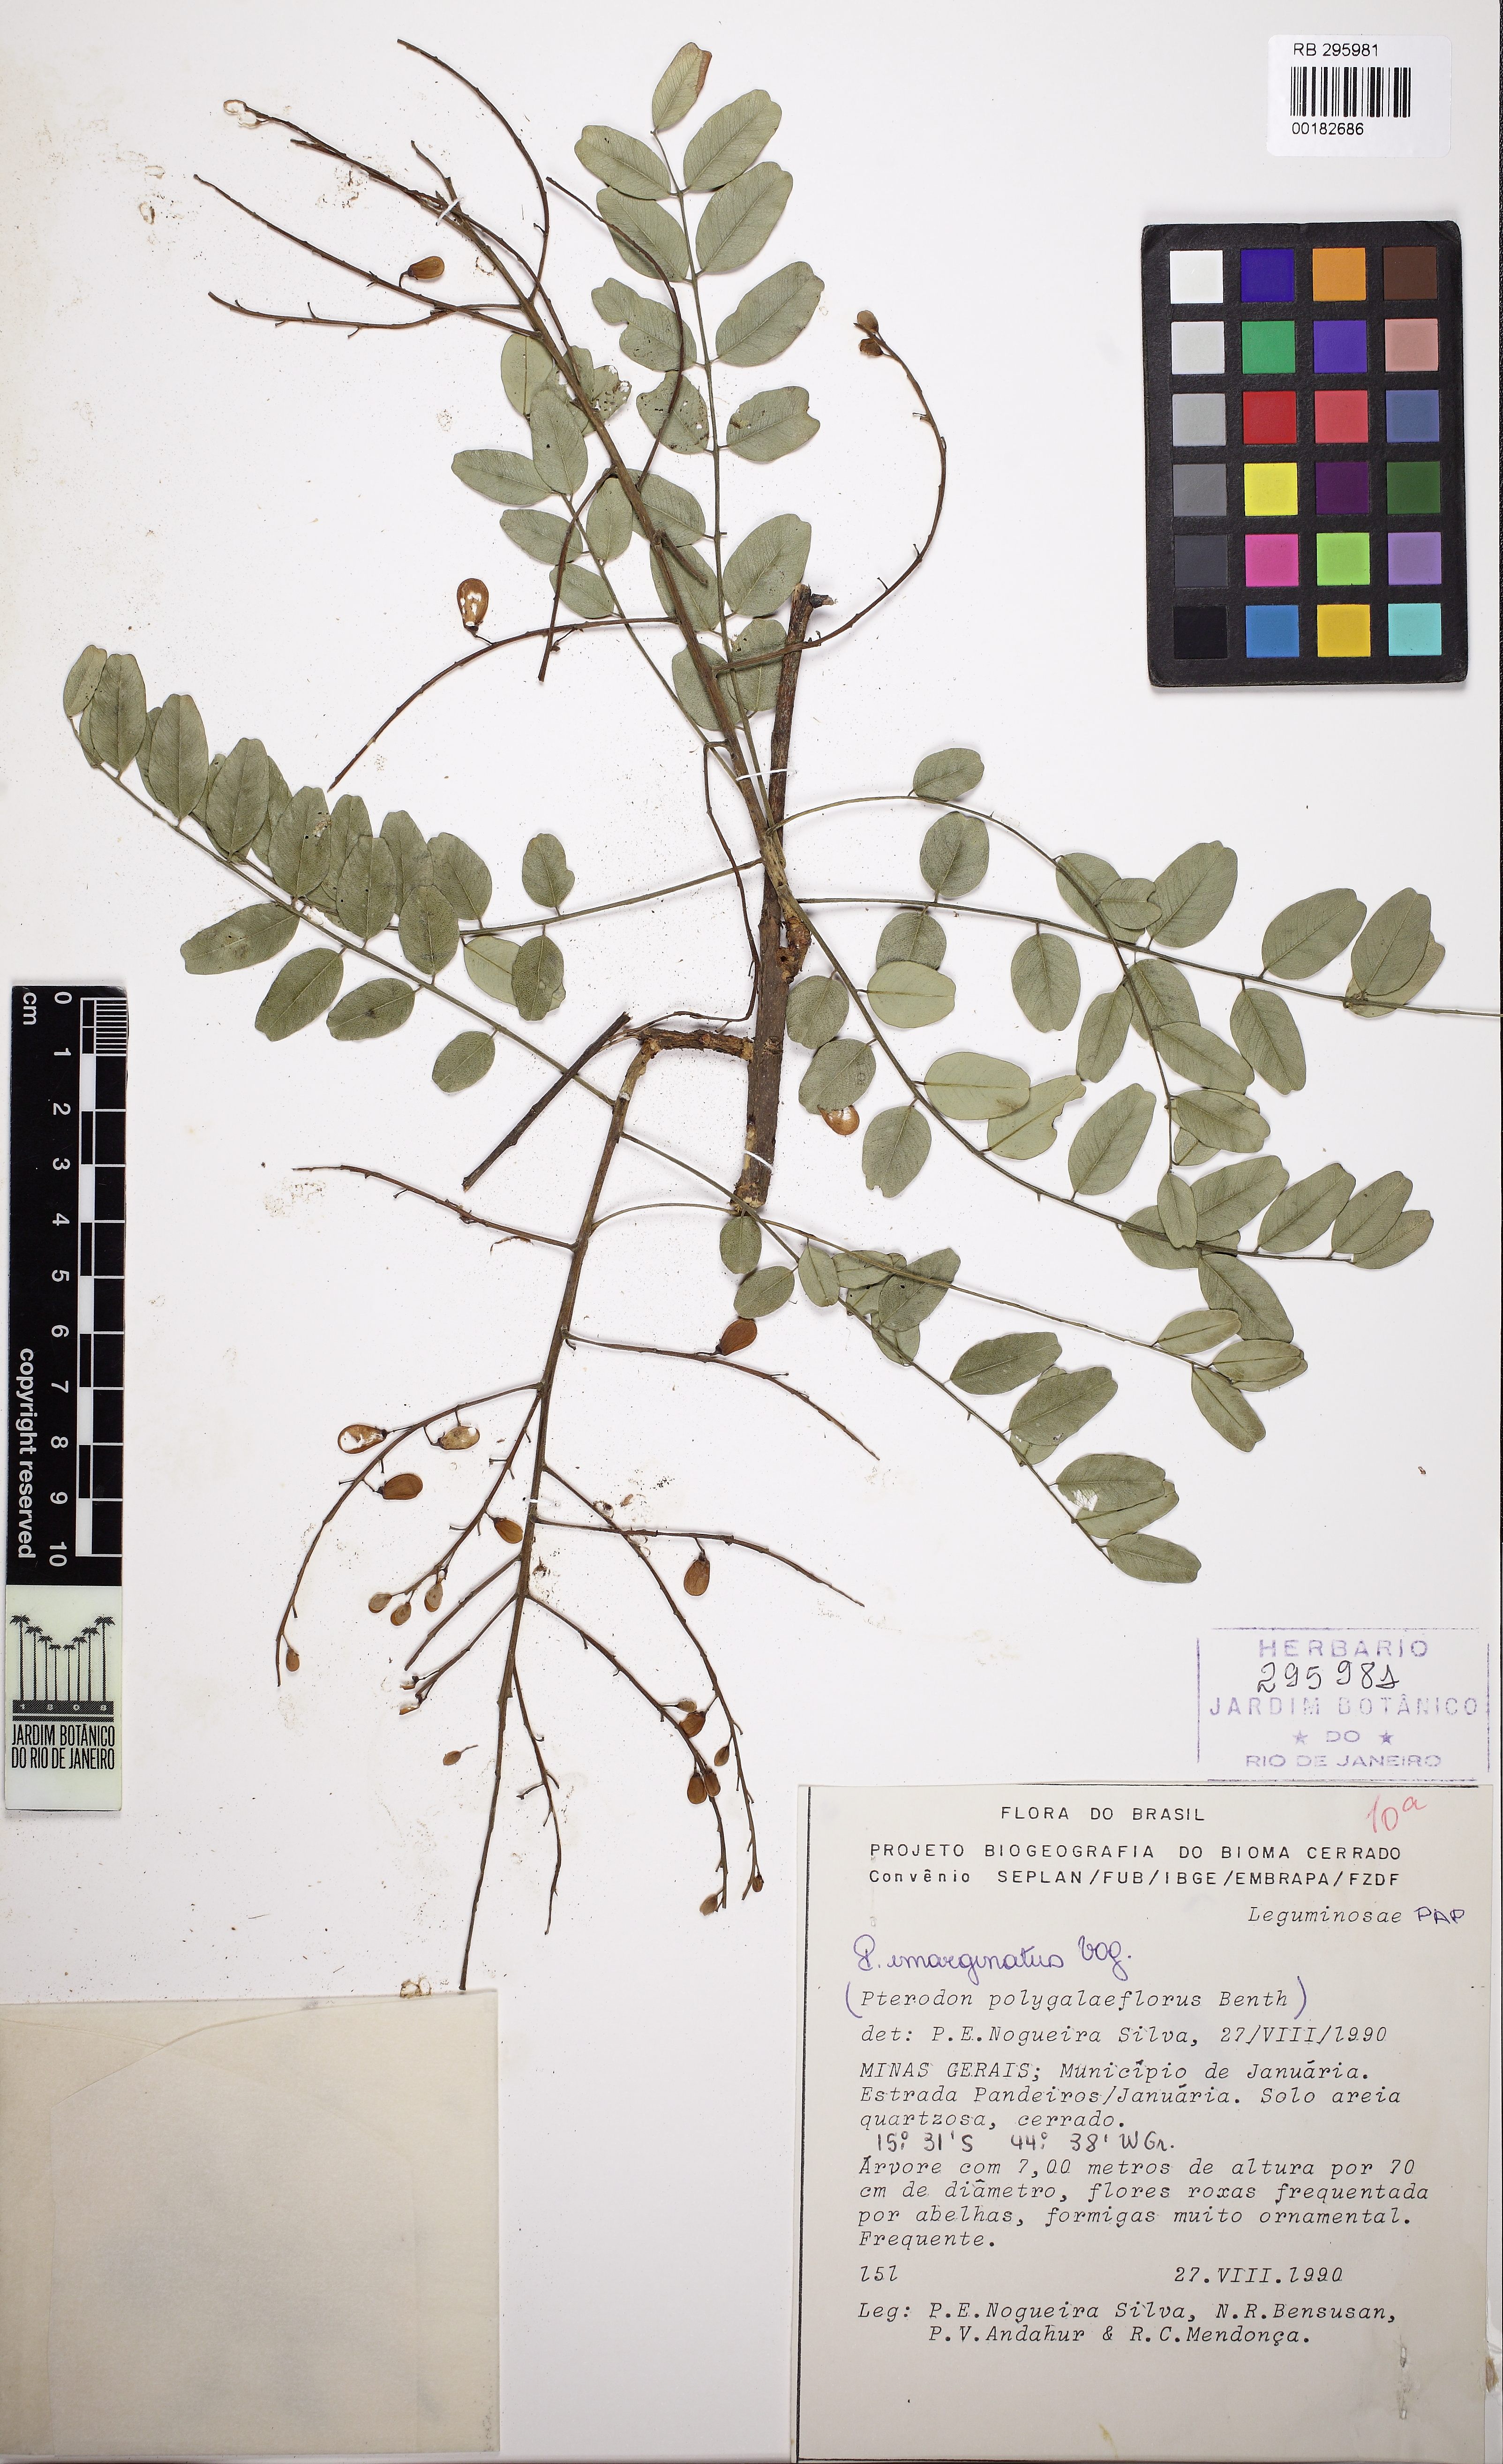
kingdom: Plantae
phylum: Tracheophyta
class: Magnoliopsida
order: Fabales
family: Fabaceae
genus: Pterodon
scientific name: Pterodon emarginatus
